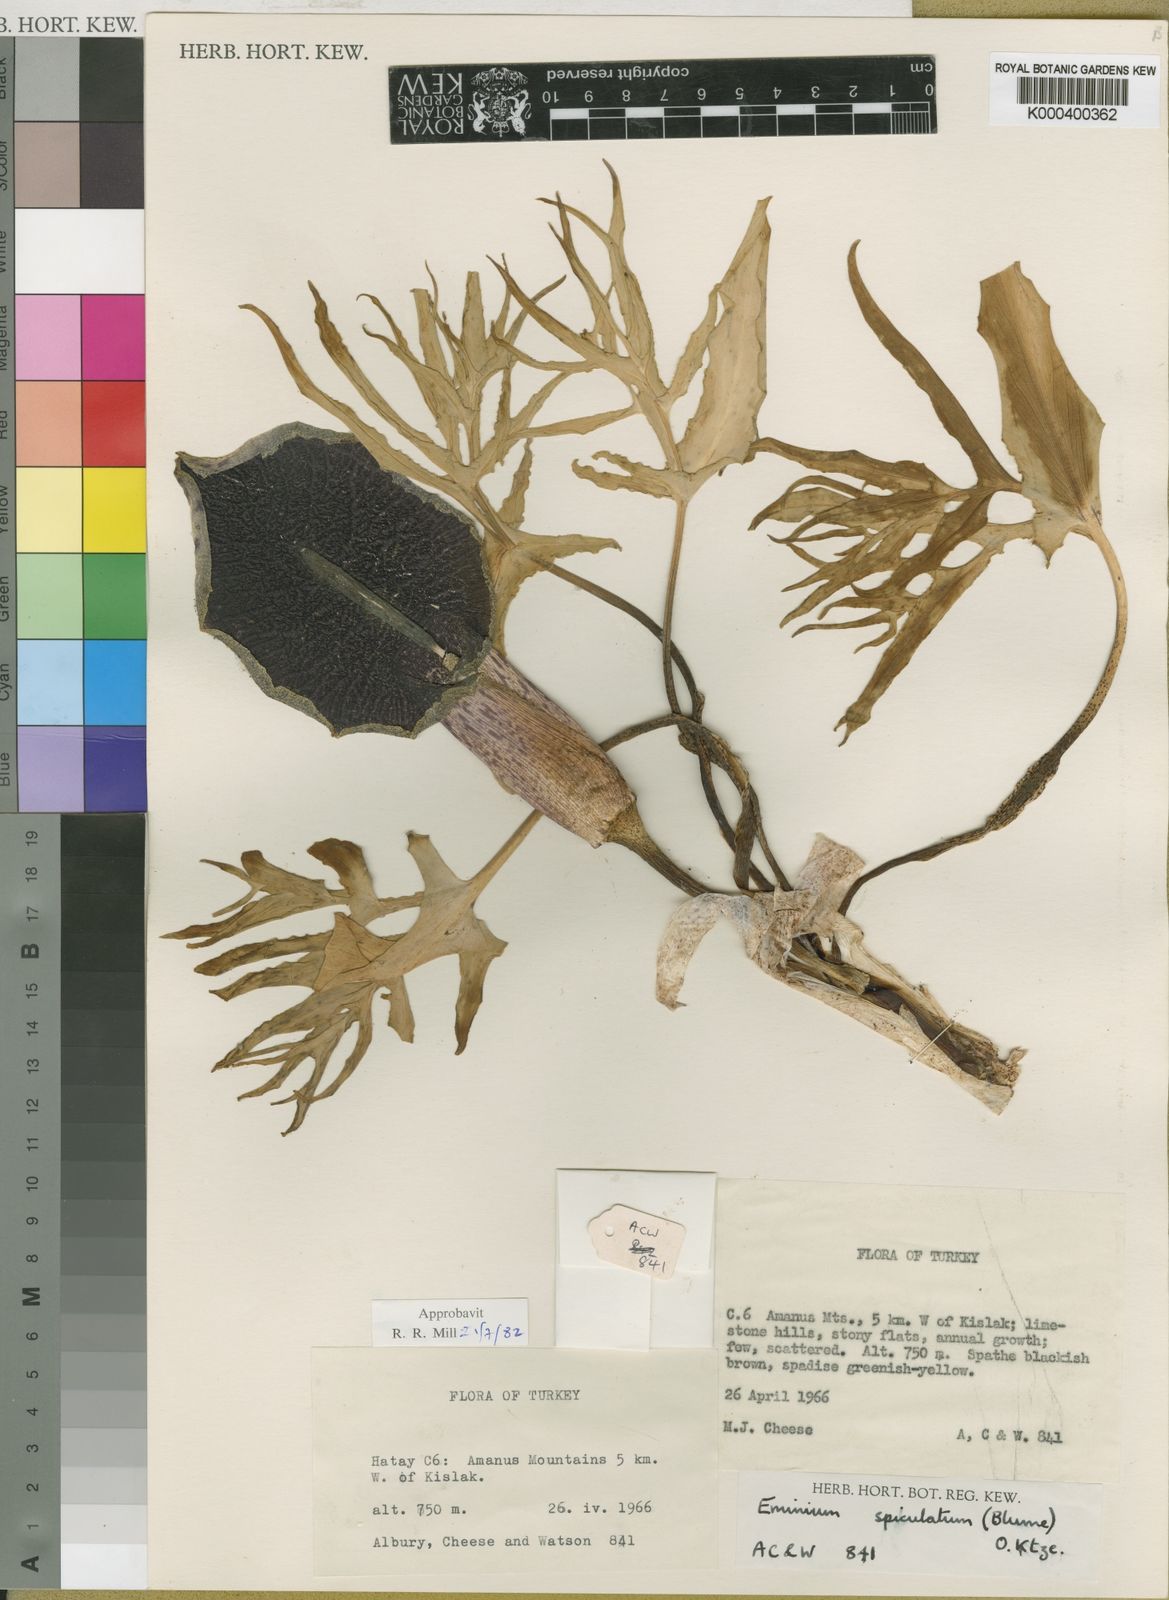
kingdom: Plantae
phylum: Tracheophyta
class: Liliopsida
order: Alismatales
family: Araceae
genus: Eminium
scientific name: Eminium spiculatum
